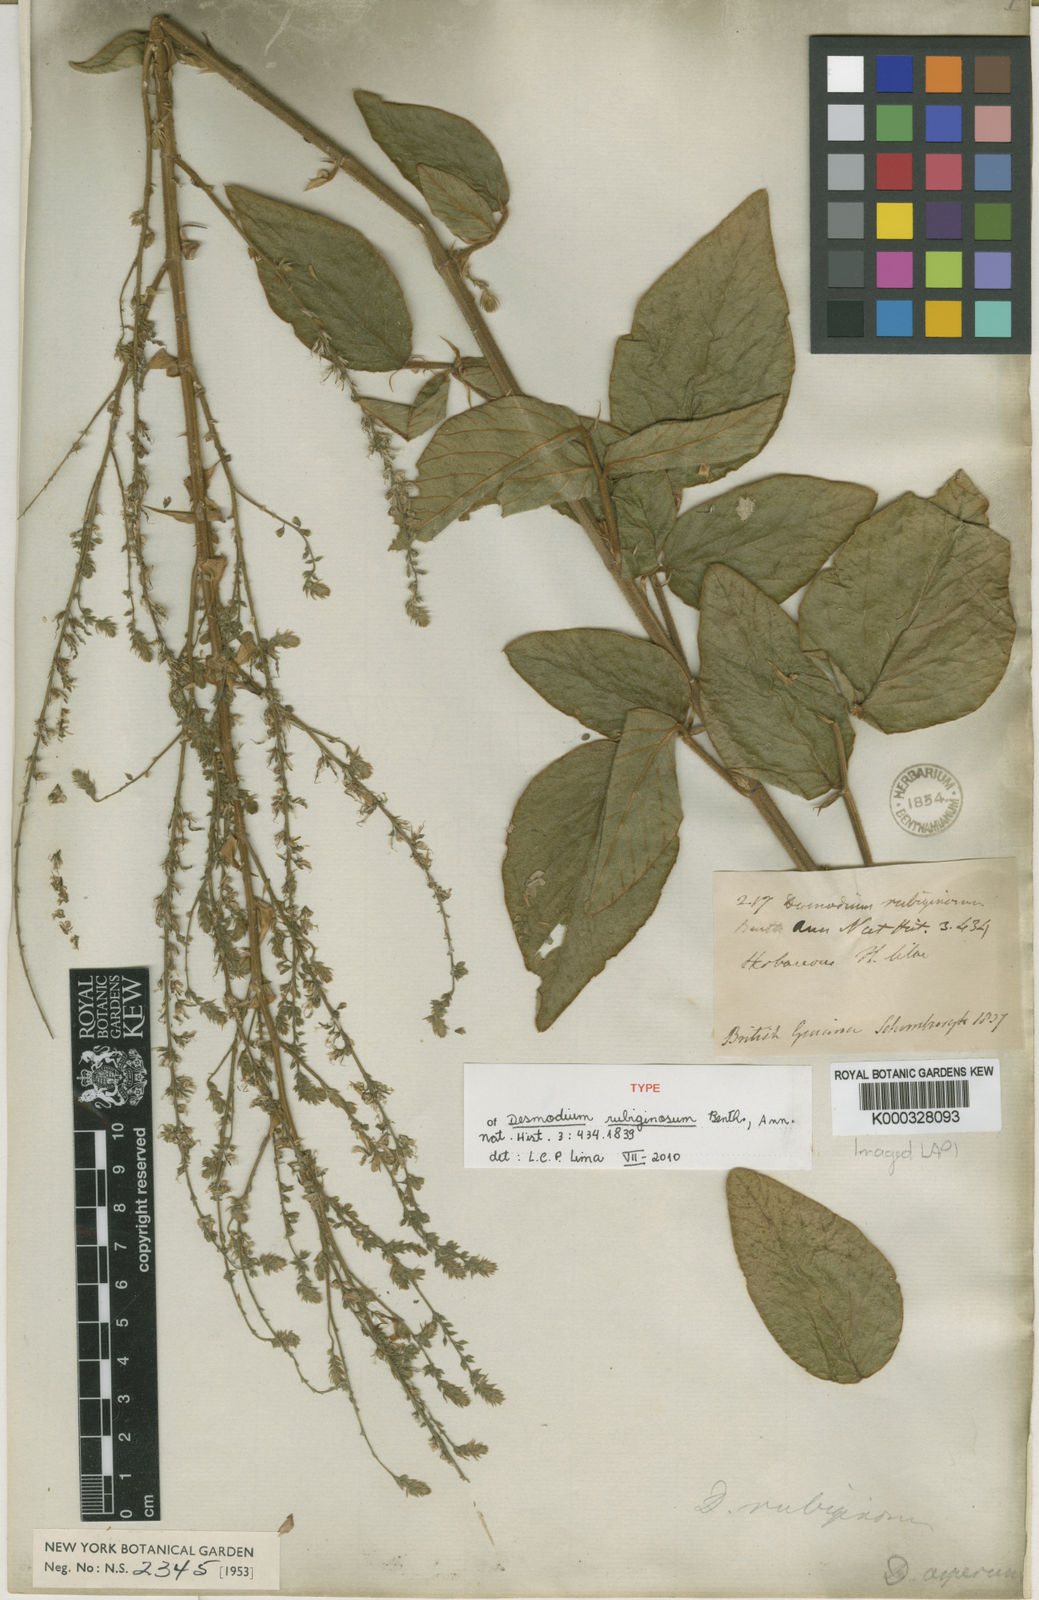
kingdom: Plantae
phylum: Tracheophyta
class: Magnoliopsida
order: Fabales
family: Fabaceae
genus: Desmodium
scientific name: Desmodium distortum
